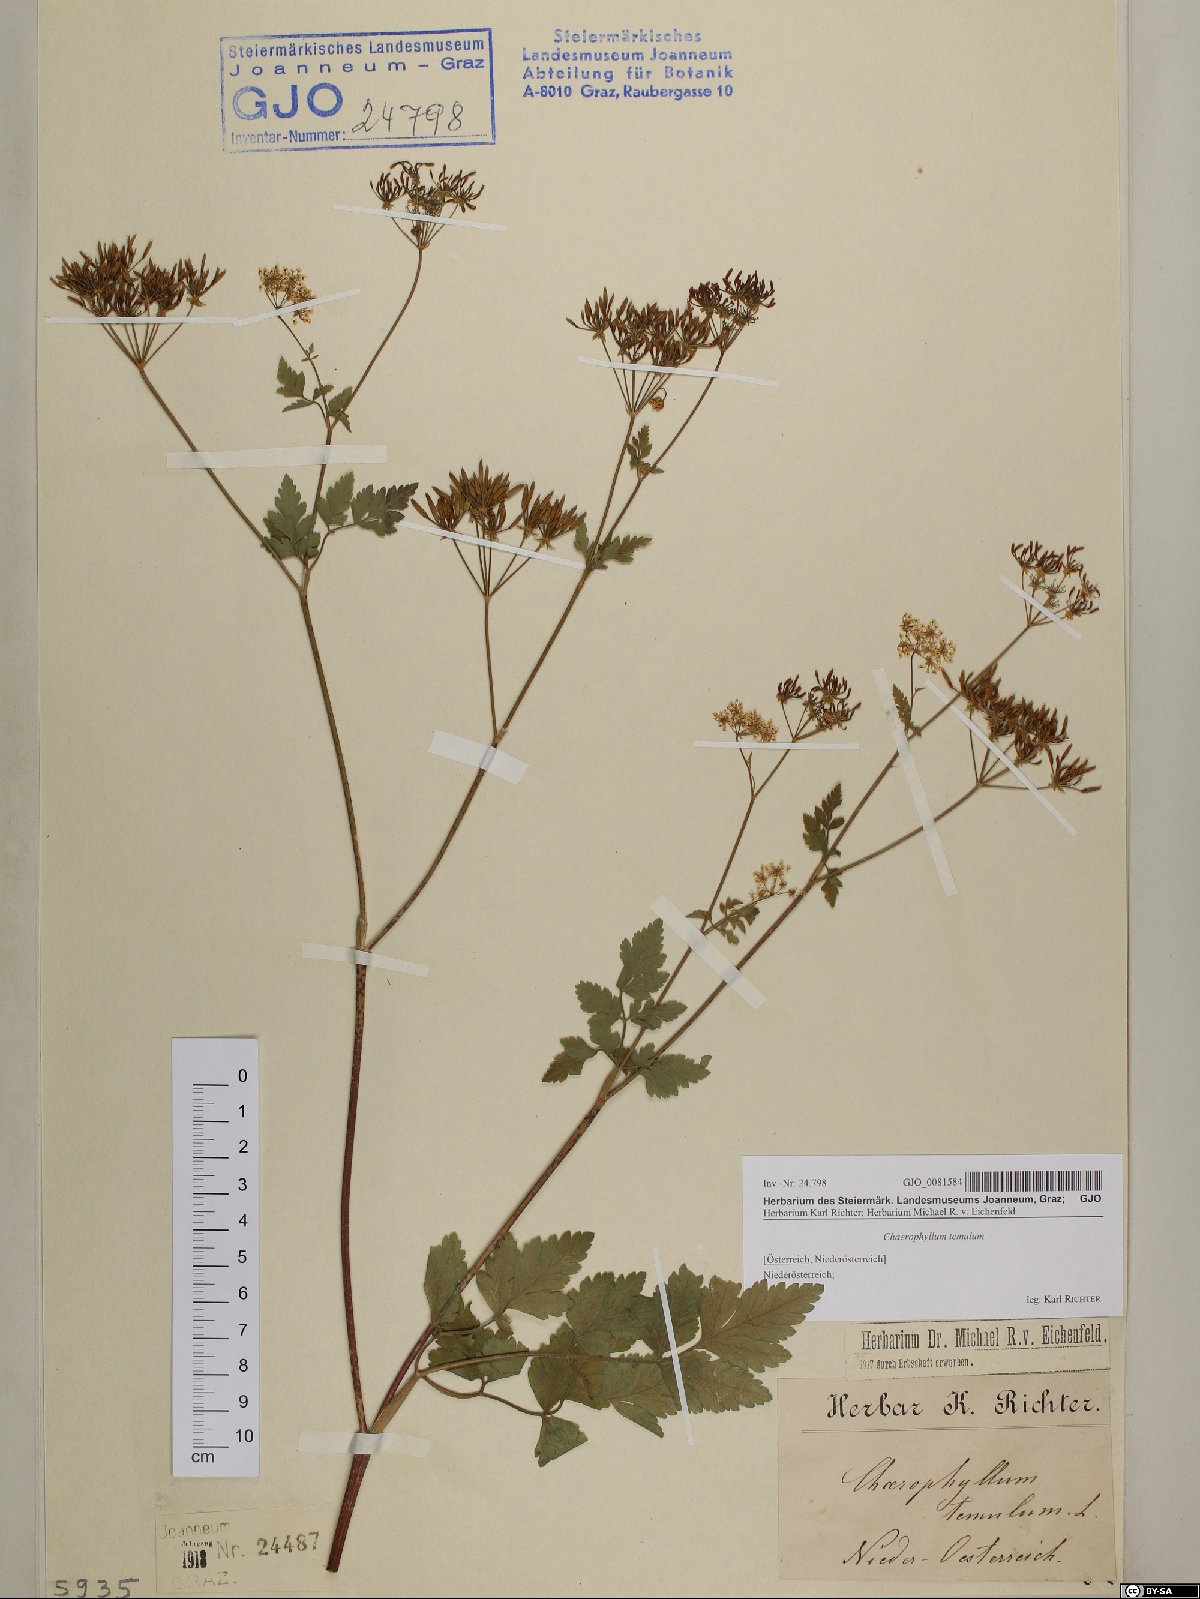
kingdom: Plantae
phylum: Tracheophyta
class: Magnoliopsida
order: Apiales
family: Apiaceae
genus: Chaerophyllum
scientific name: Chaerophyllum temulum
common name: Rough chervil
